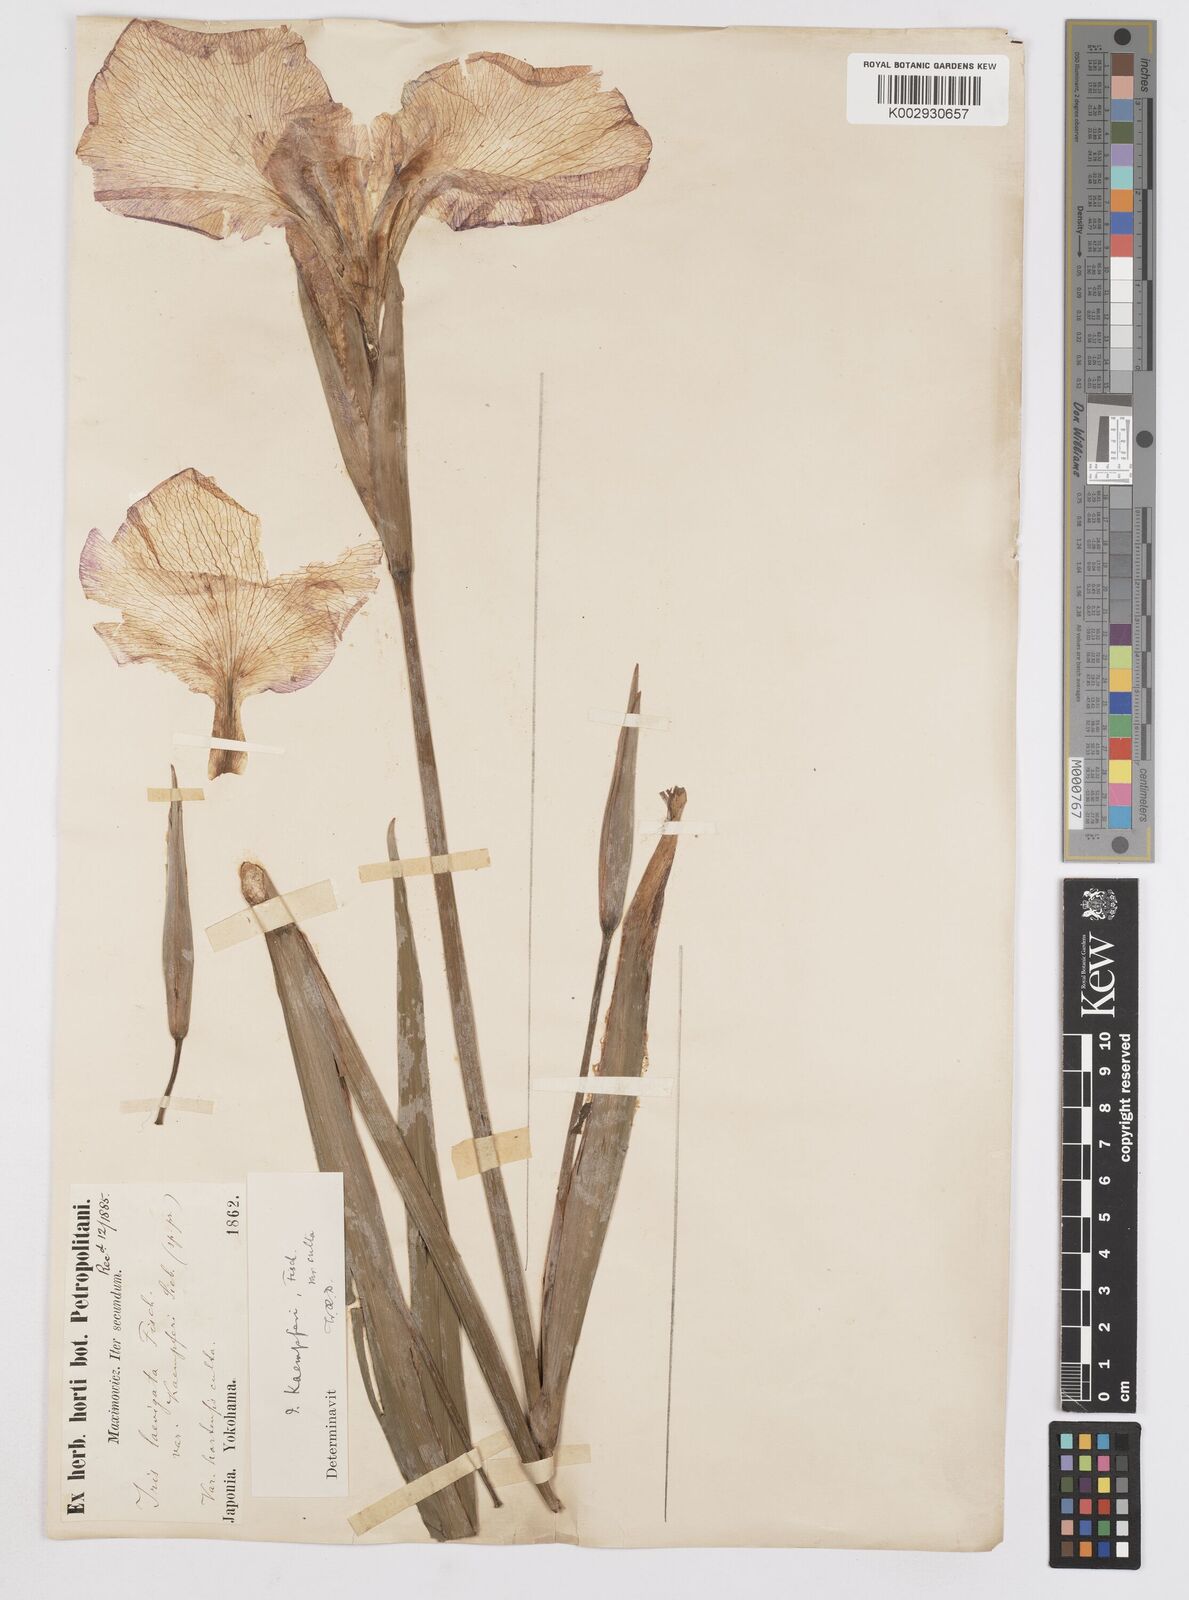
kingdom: Plantae
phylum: Tracheophyta
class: Liliopsida
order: Asparagales
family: Iridaceae
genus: Iris
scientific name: Iris ensata
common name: Beaked iris
